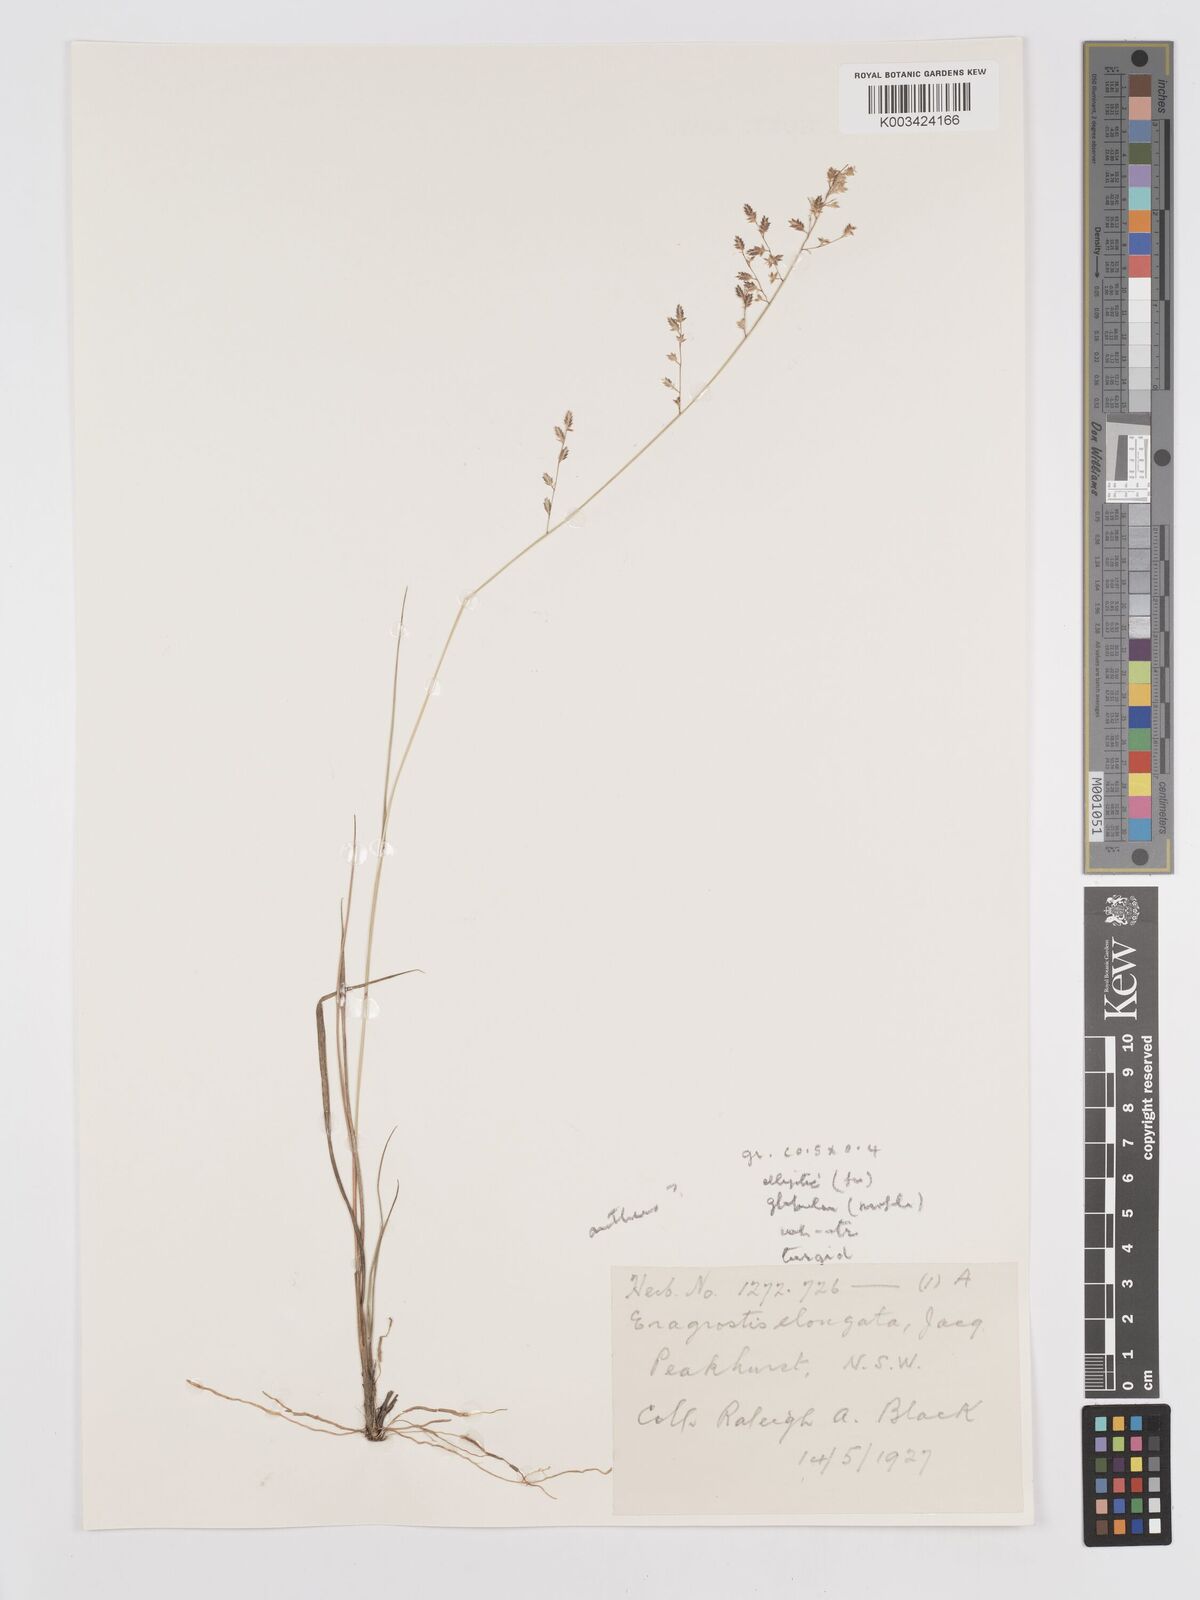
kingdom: Plantae
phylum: Tracheophyta
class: Liliopsida
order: Poales
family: Poaceae
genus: Eragrostis
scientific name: Eragrostis brownii
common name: Lovegrass
